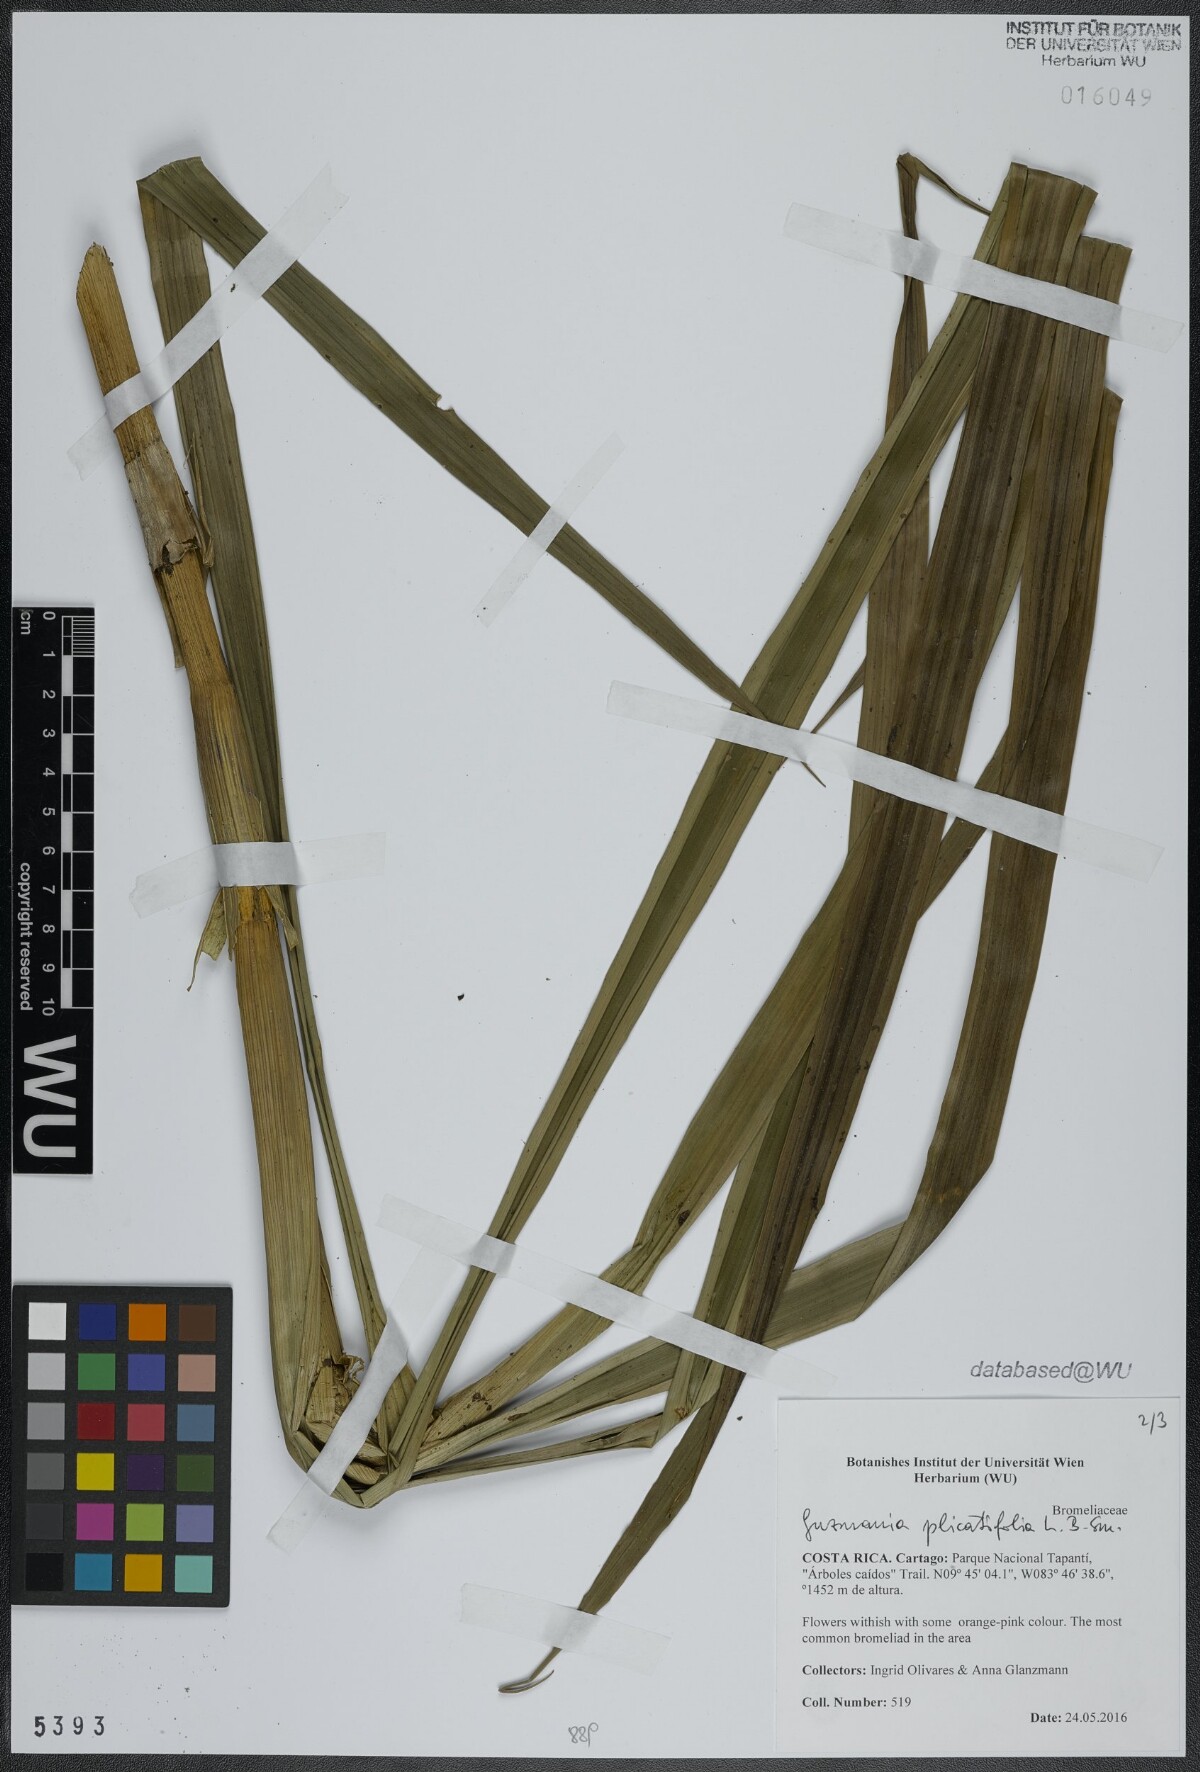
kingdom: Plantae
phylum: Tracheophyta
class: Liliopsida
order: Poales
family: Bromeliaceae
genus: Guzmania
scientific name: Guzmania plicatifolia
